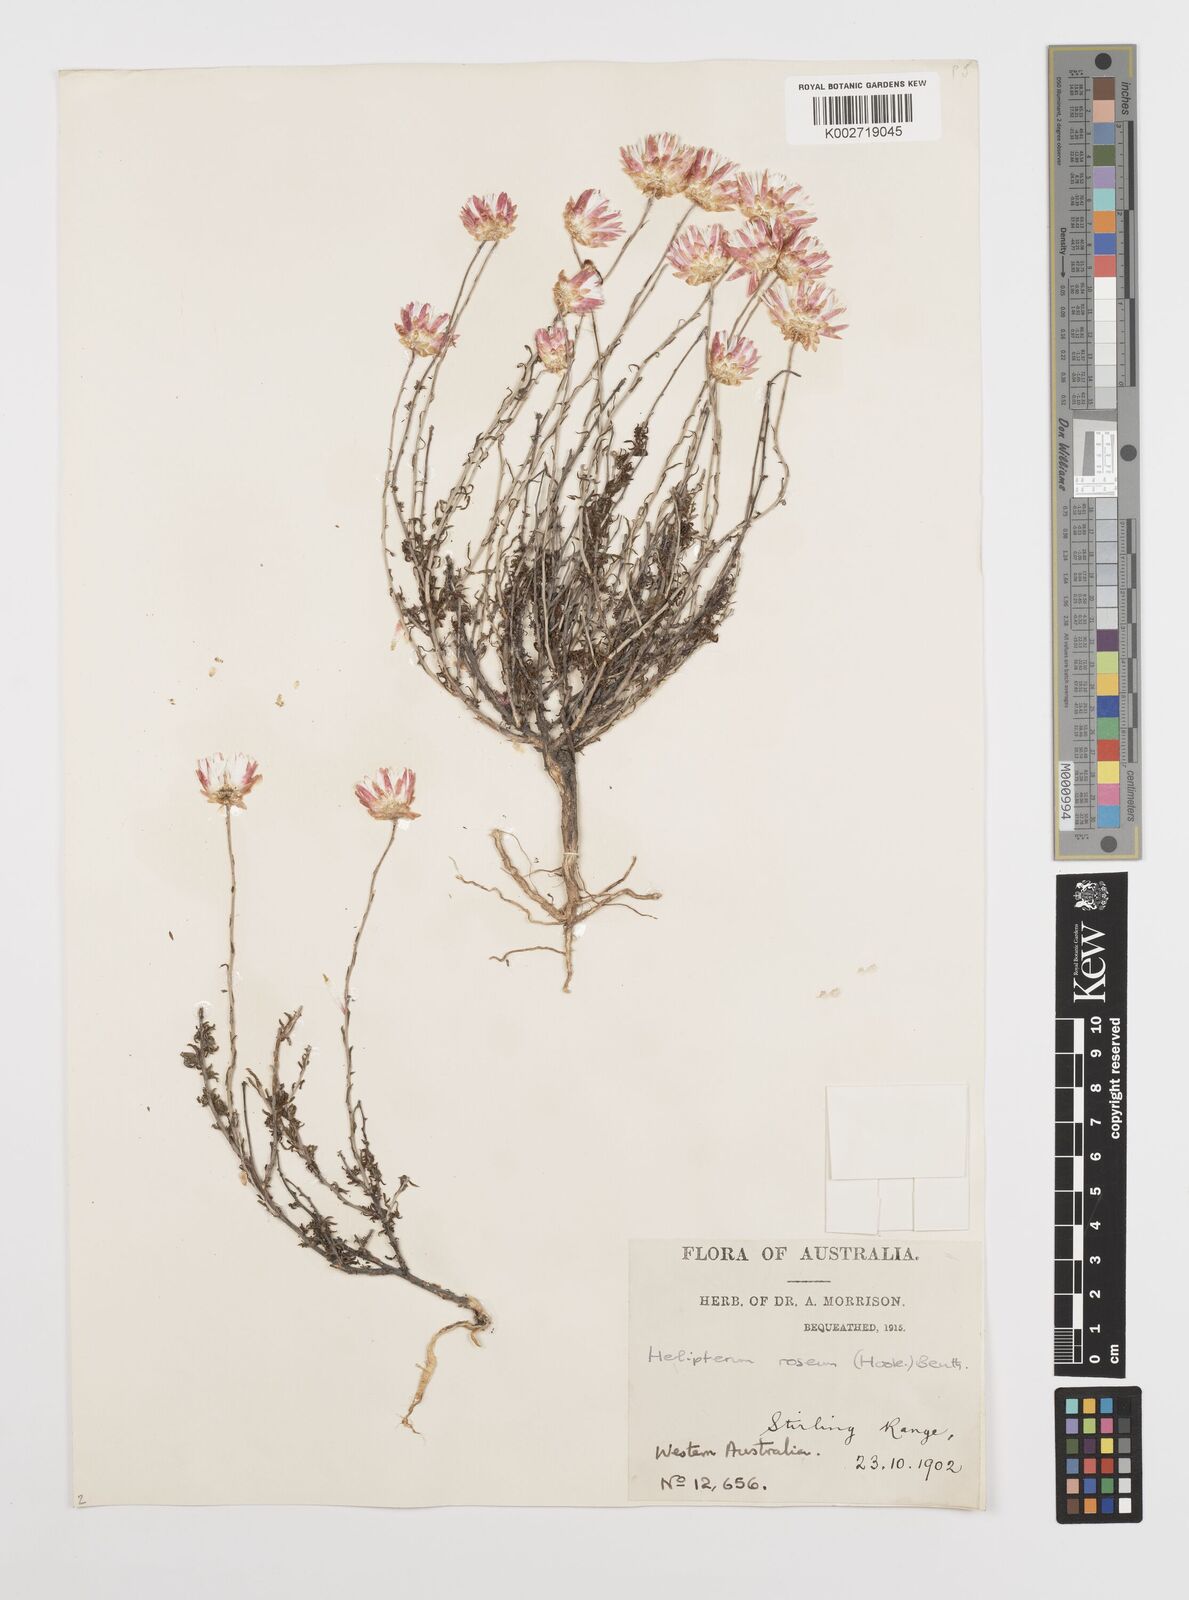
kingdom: Plantae
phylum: Tracheophyta
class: Magnoliopsida
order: Asterales
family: Asteraceae
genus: Rhodanthe
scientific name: Rhodanthe chlorocephala
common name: Rosy sunray
